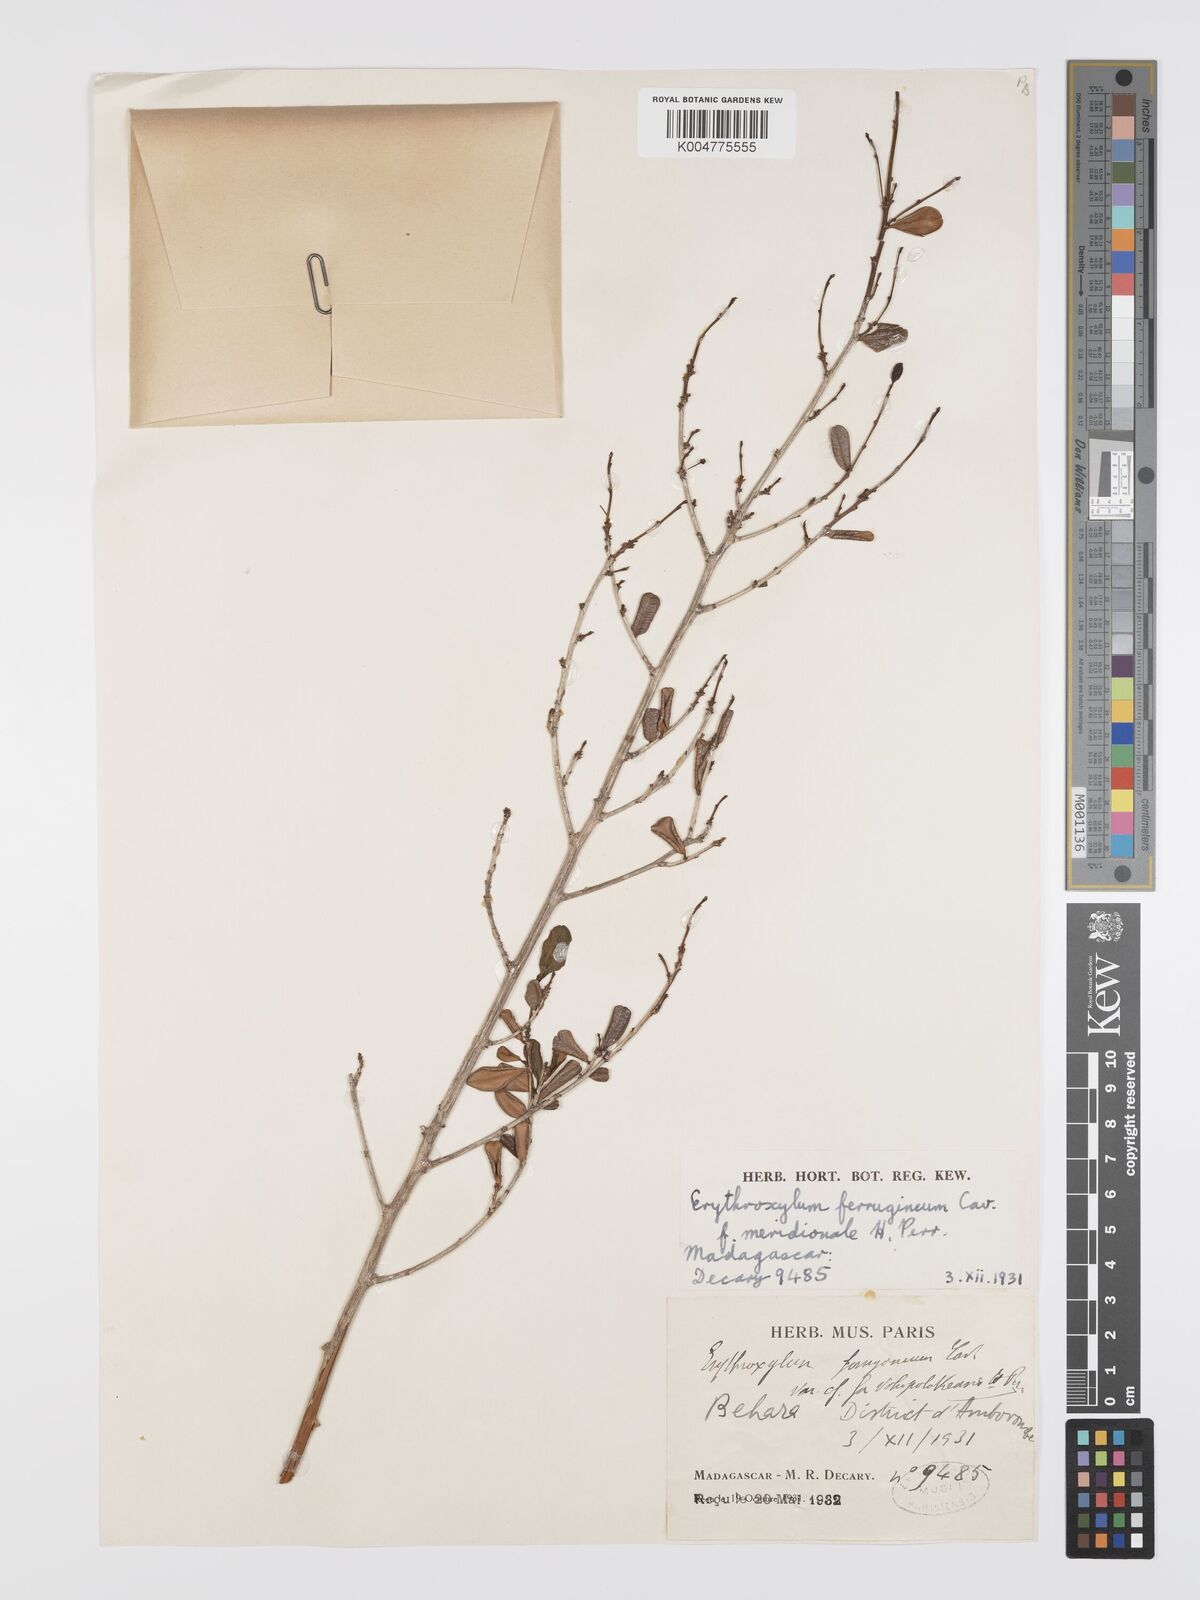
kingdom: Plantae
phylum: Tracheophyta
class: Magnoliopsida
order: Malpighiales
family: Erythroxylaceae
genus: Erythroxylum
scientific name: Erythroxylum ferrugineum
